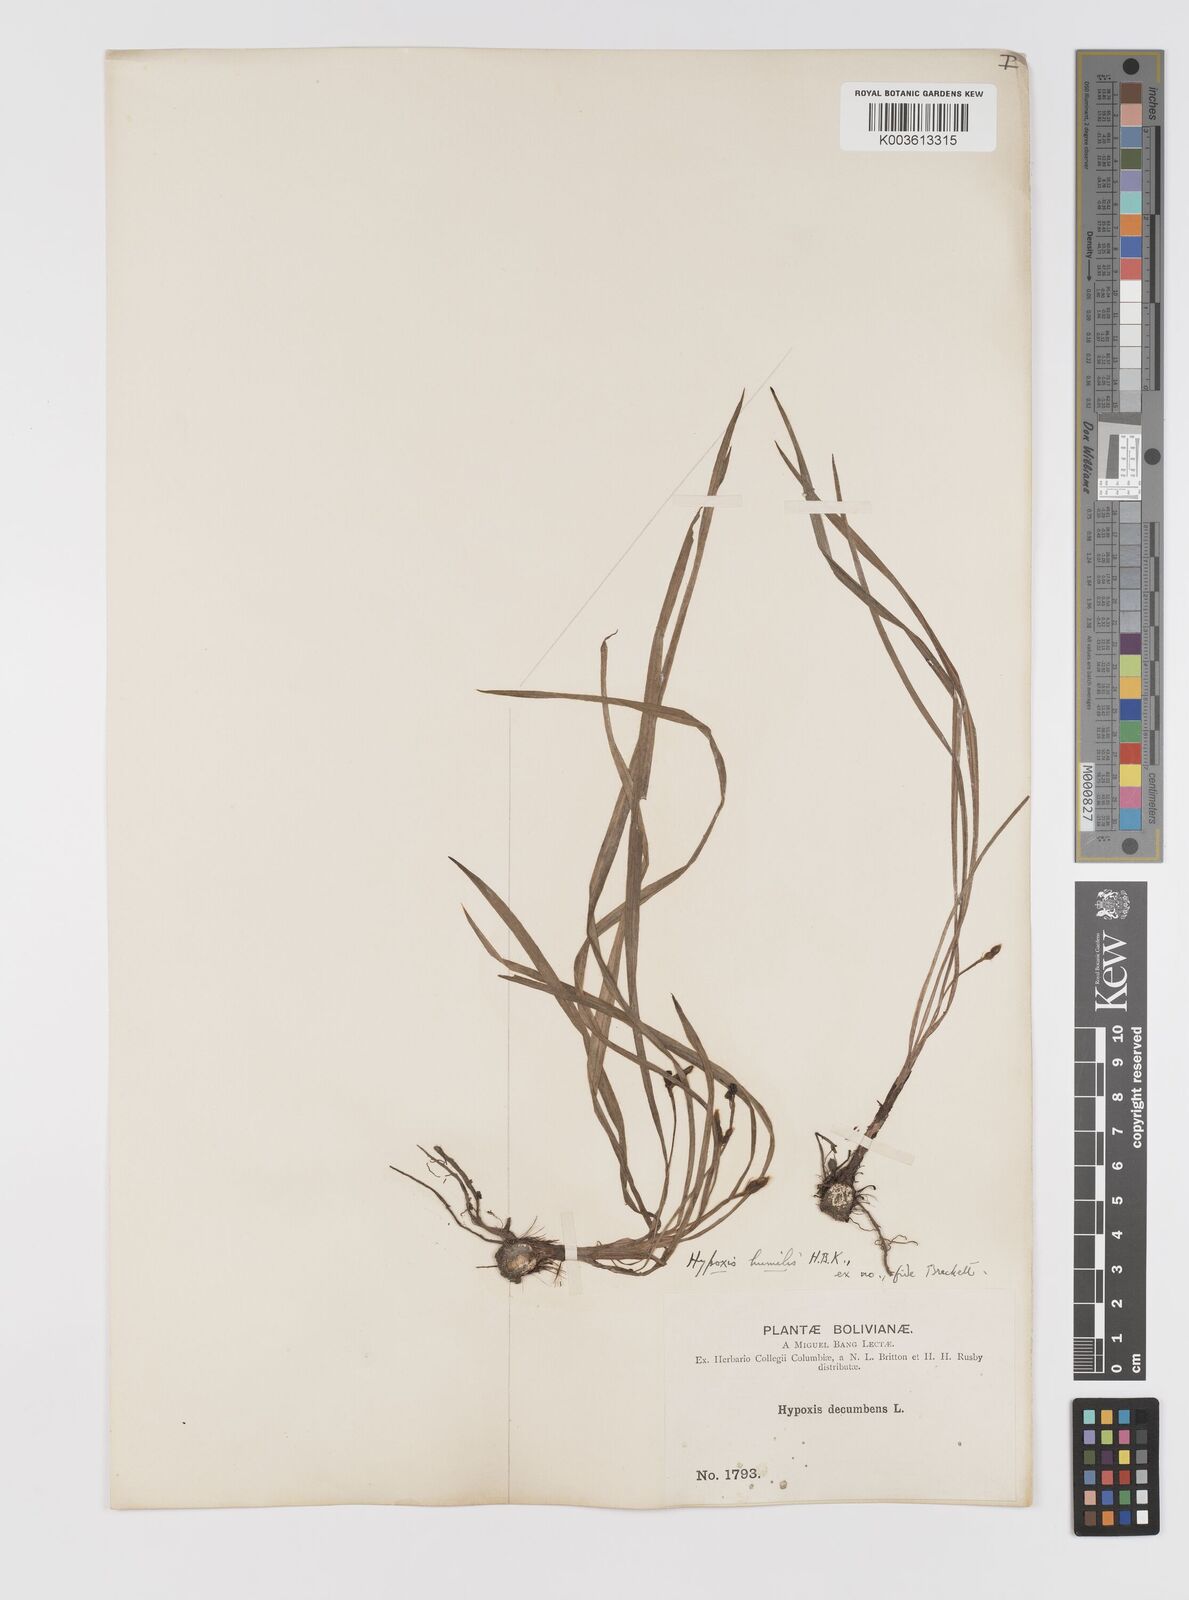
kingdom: Plantae
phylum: Tracheophyta
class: Liliopsida
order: Asparagales
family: Hypoxidaceae
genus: Hypoxis
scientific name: Hypoxis humilis
